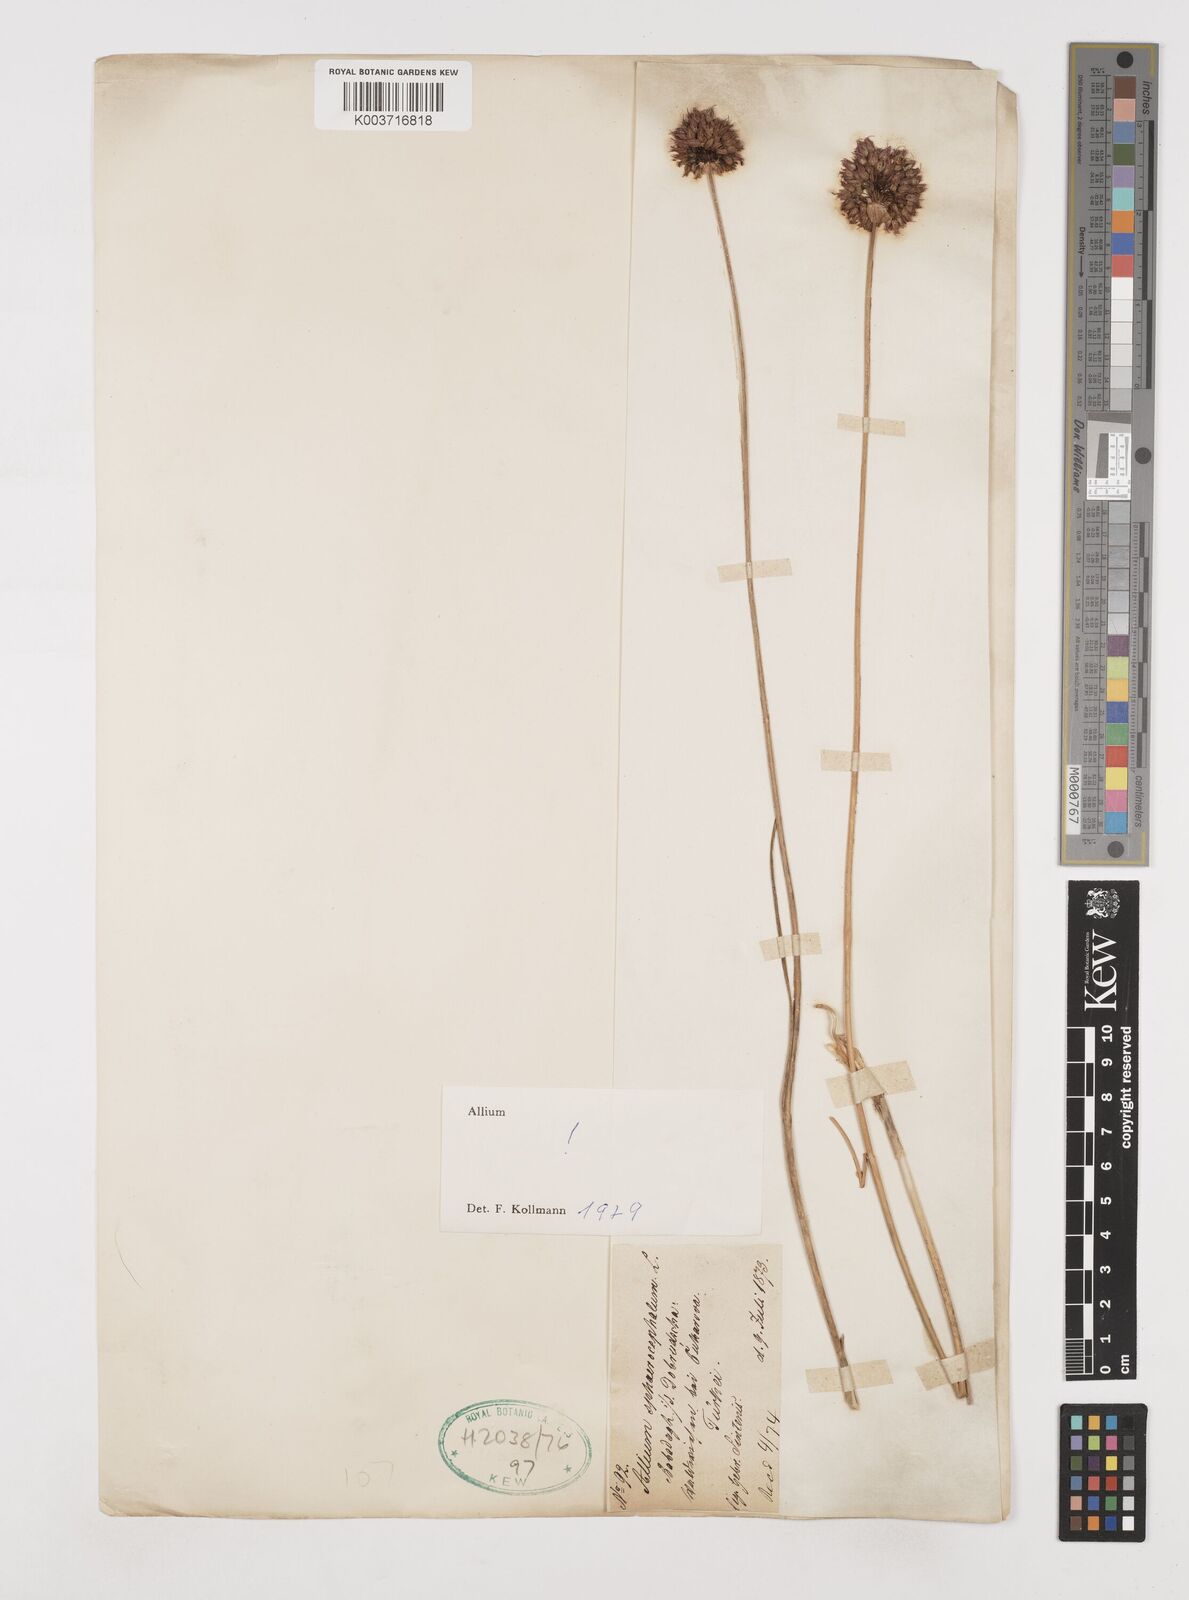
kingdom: Plantae
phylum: Tracheophyta
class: Liliopsida
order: Asparagales
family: Amaryllidaceae
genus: Allium
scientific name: Allium sphaerocephalon
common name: Round-headed leek
